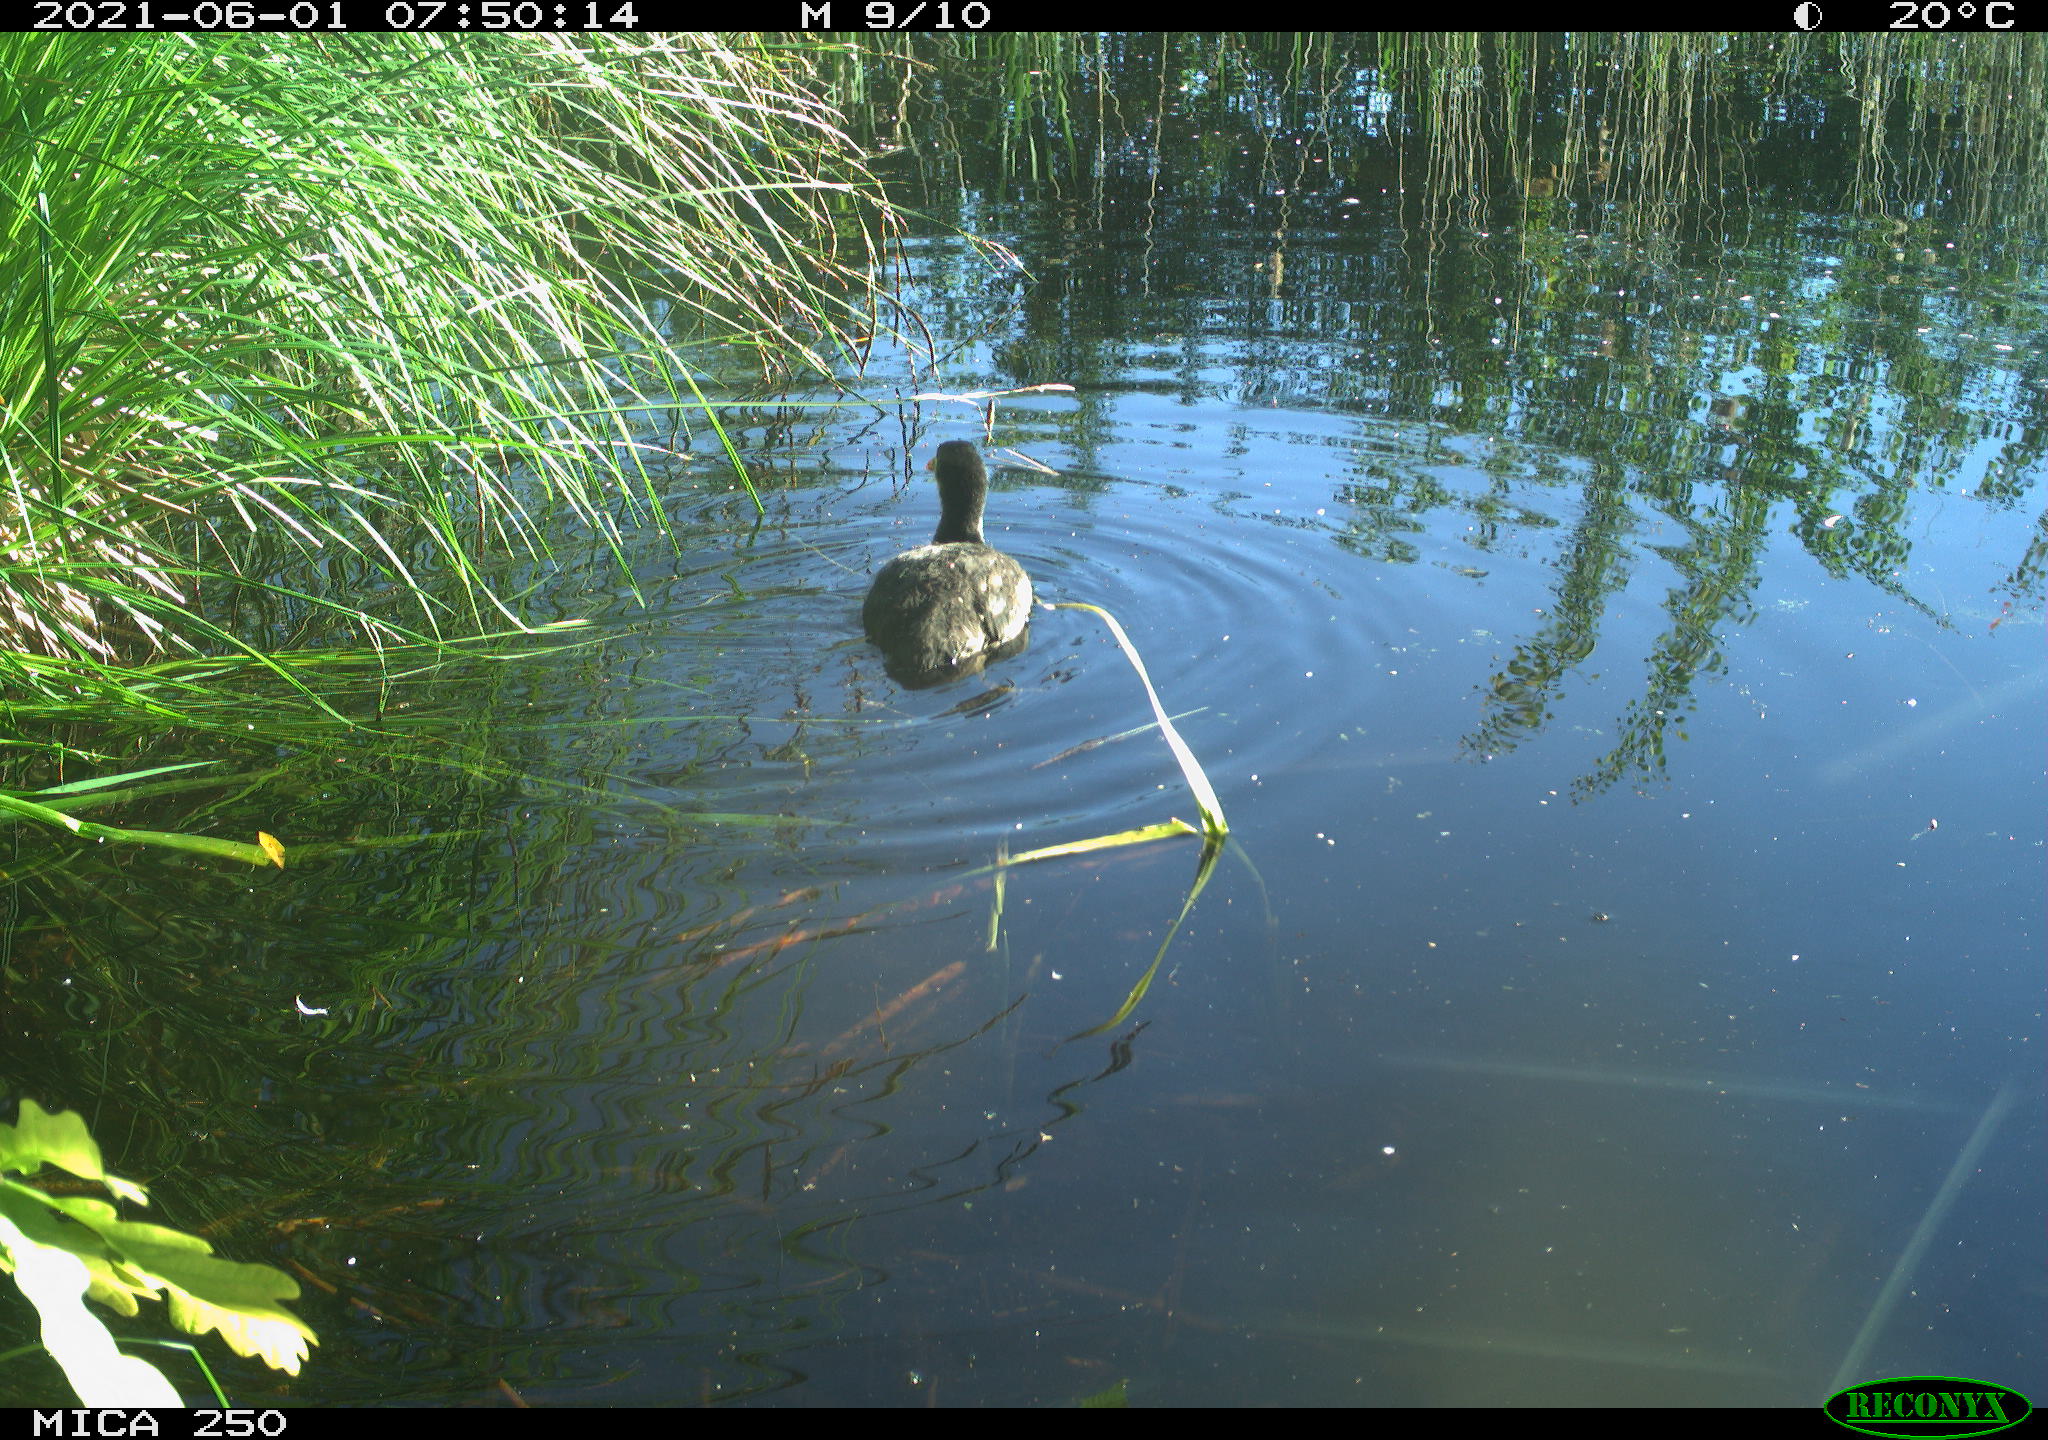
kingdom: Animalia
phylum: Chordata
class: Aves
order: Anseriformes
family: Anatidae
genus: Mareca
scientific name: Mareca strepera
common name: Gadwall
